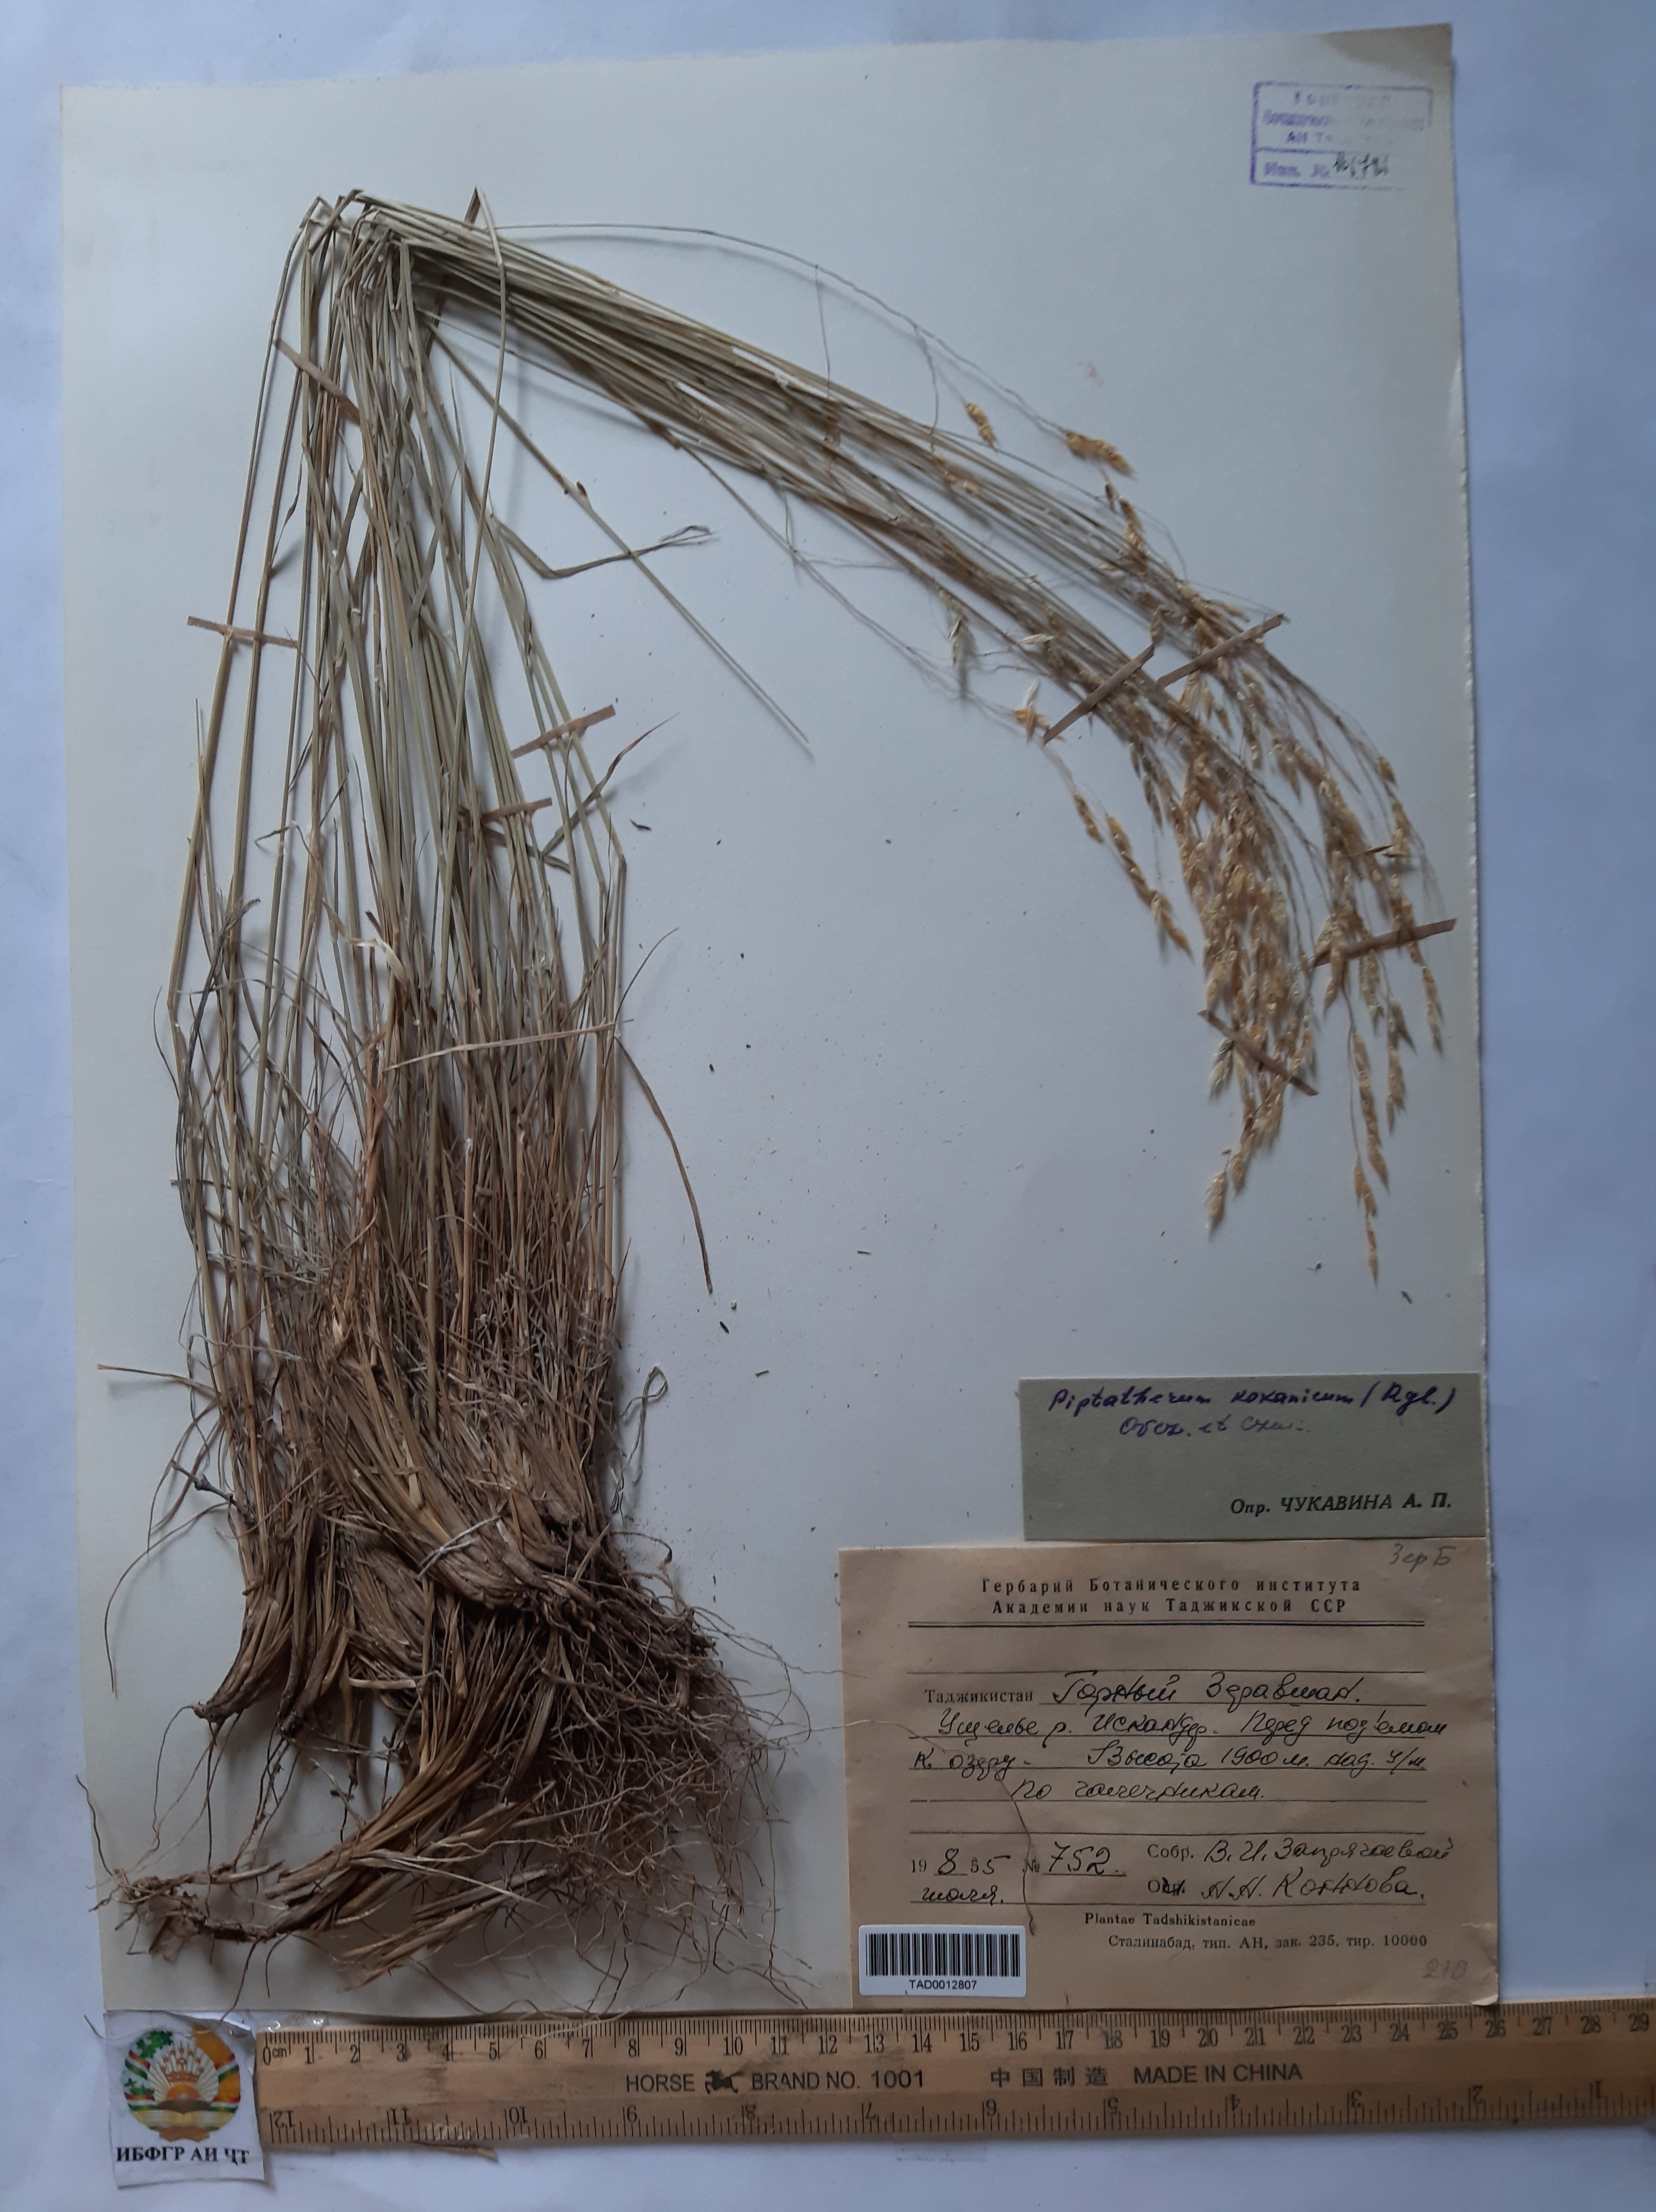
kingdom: Plantae
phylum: Tracheophyta
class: Liliopsida
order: Poales
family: Poaceae
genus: Piptatherum
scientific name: Piptatherum songaricum
